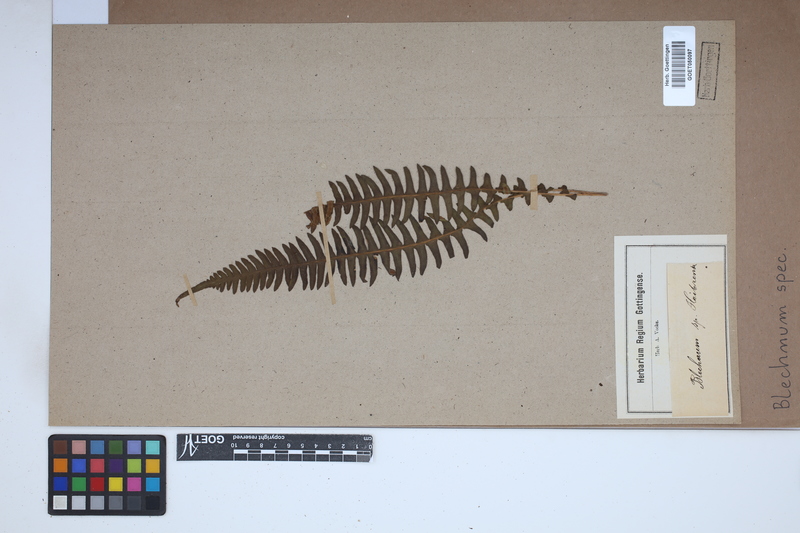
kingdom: Plantae
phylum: Tracheophyta
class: Polypodiopsida
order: Polypodiales
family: Blechnaceae
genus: Blechnum
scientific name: Blechnum
